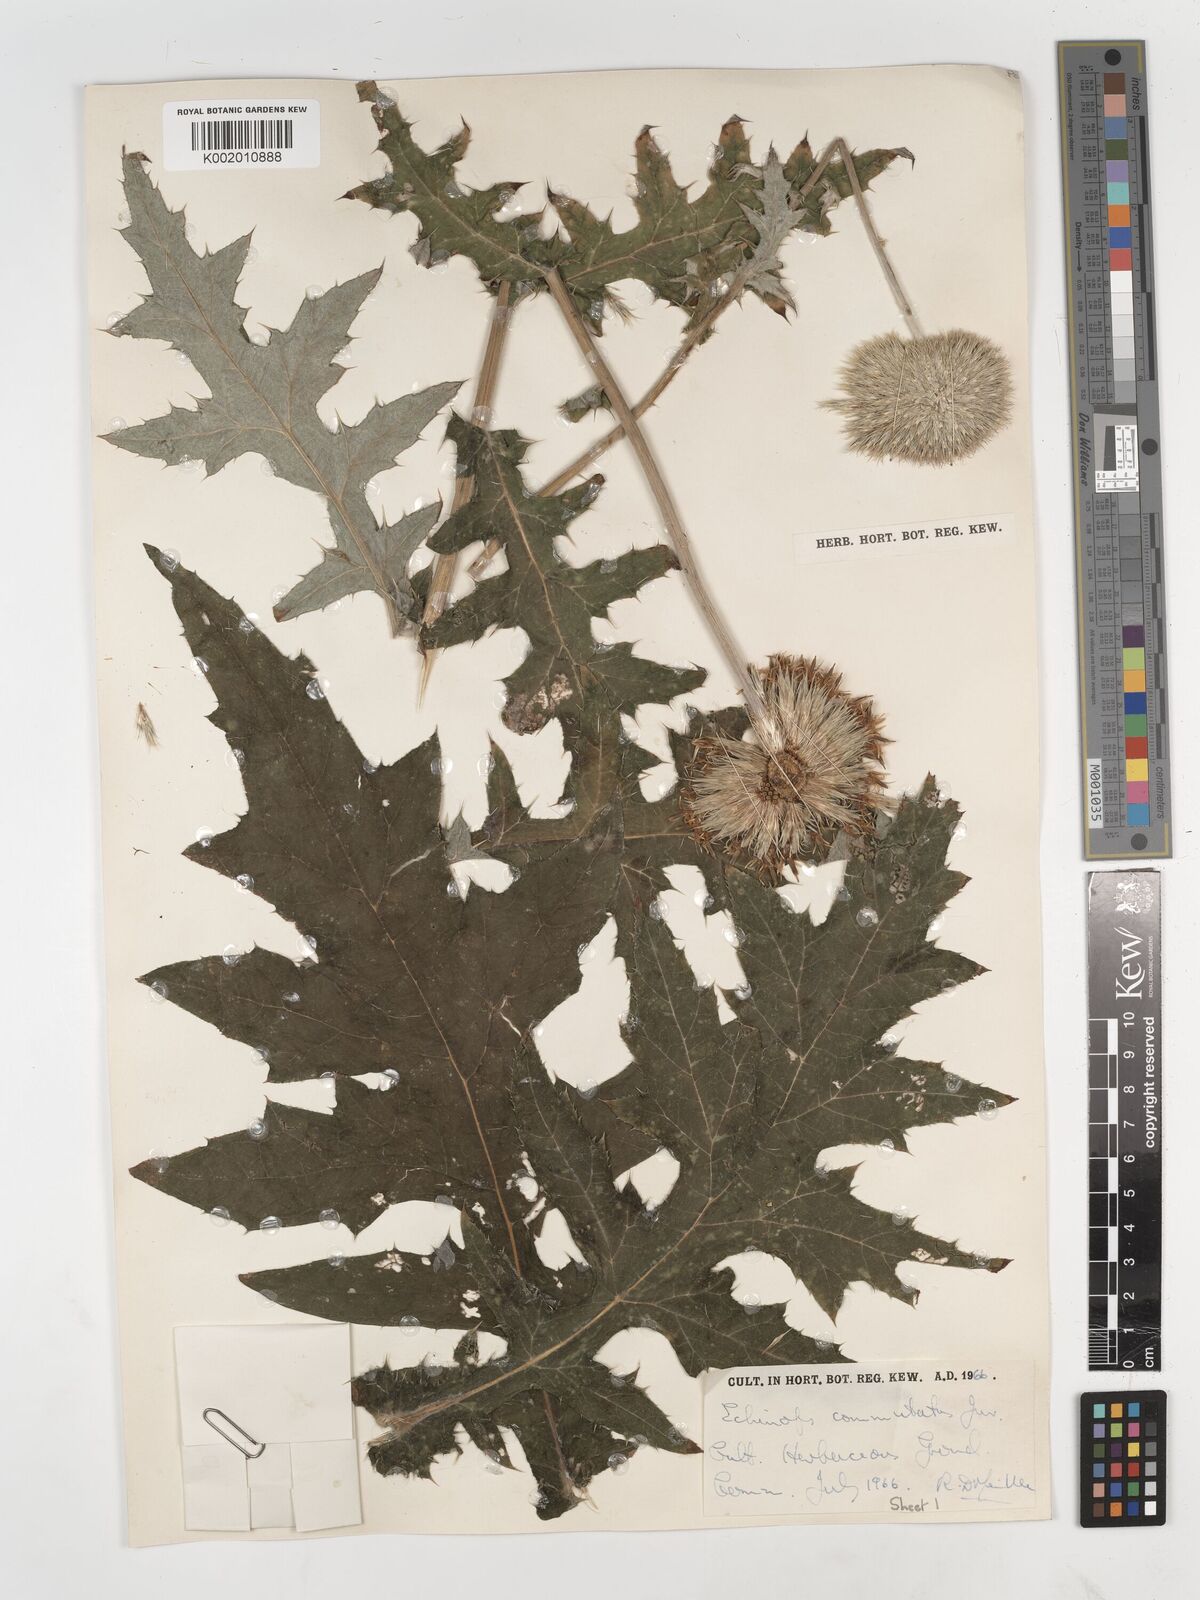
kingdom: Plantae
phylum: Tracheophyta
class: Magnoliopsida
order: Asterales
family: Asteraceae
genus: Echinops
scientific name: Echinops exaltatus
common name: Globe-thistle
